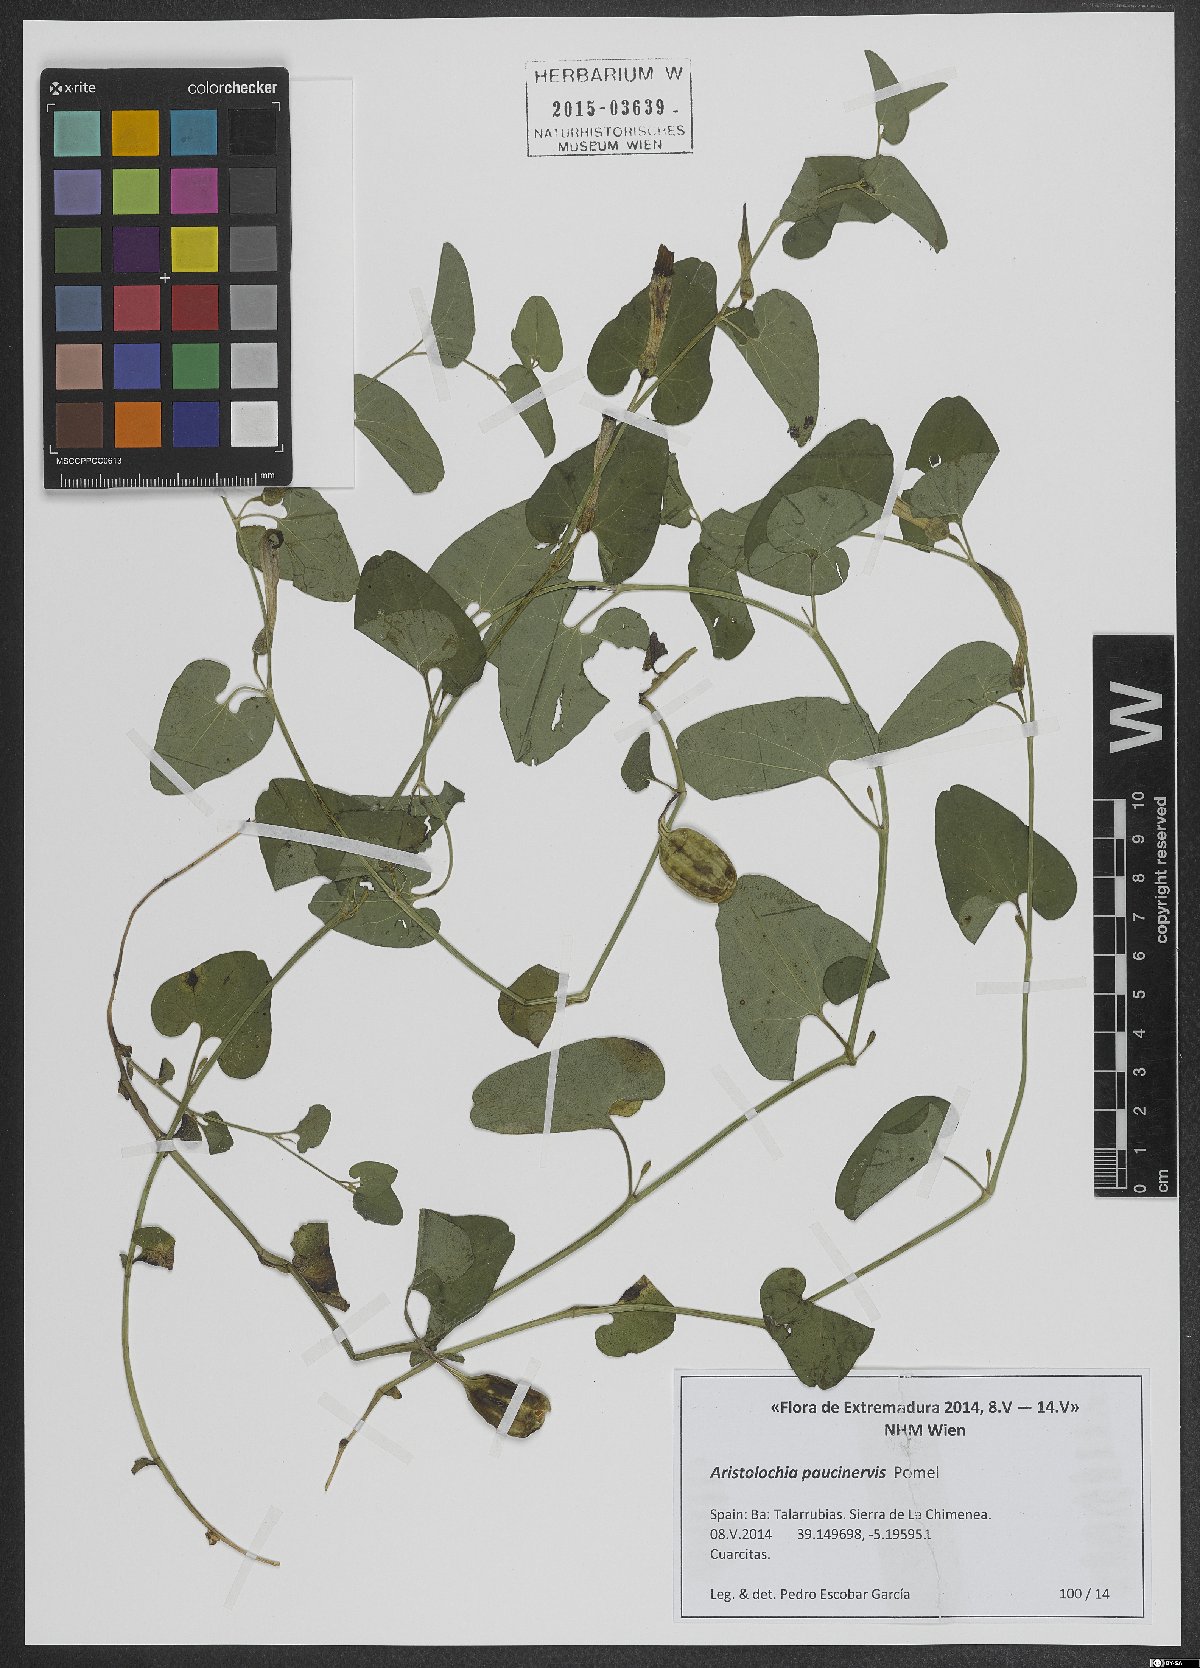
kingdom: Plantae
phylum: Tracheophyta
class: Magnoliopsida
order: Piperales
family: Aristolochiaceae
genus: Aristolochia
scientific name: Aristolochia paucinervis
